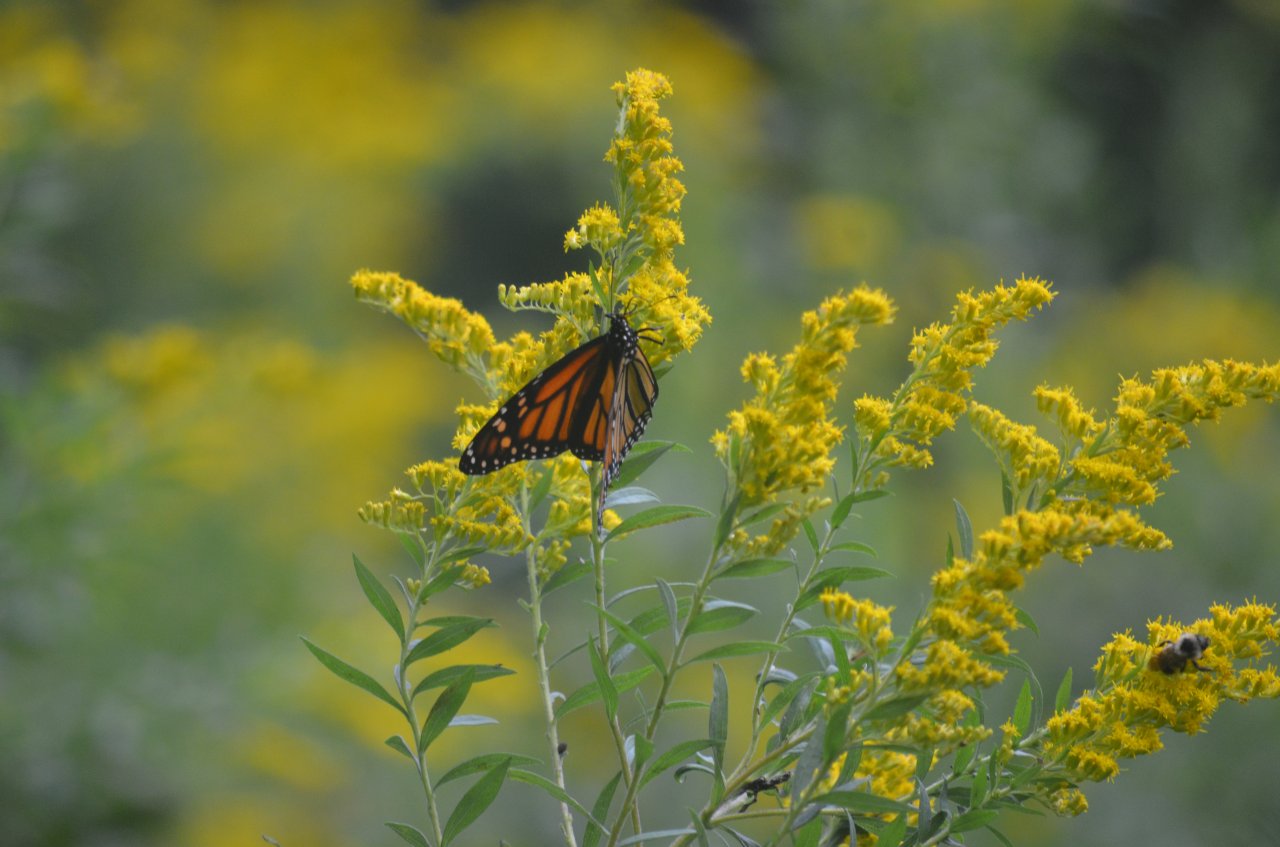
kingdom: Animalia
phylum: Arthropoda
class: Insecta
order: Lepidoptera
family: Nymphalidae
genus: Danaus
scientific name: Danaus plexippus
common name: Monarch
